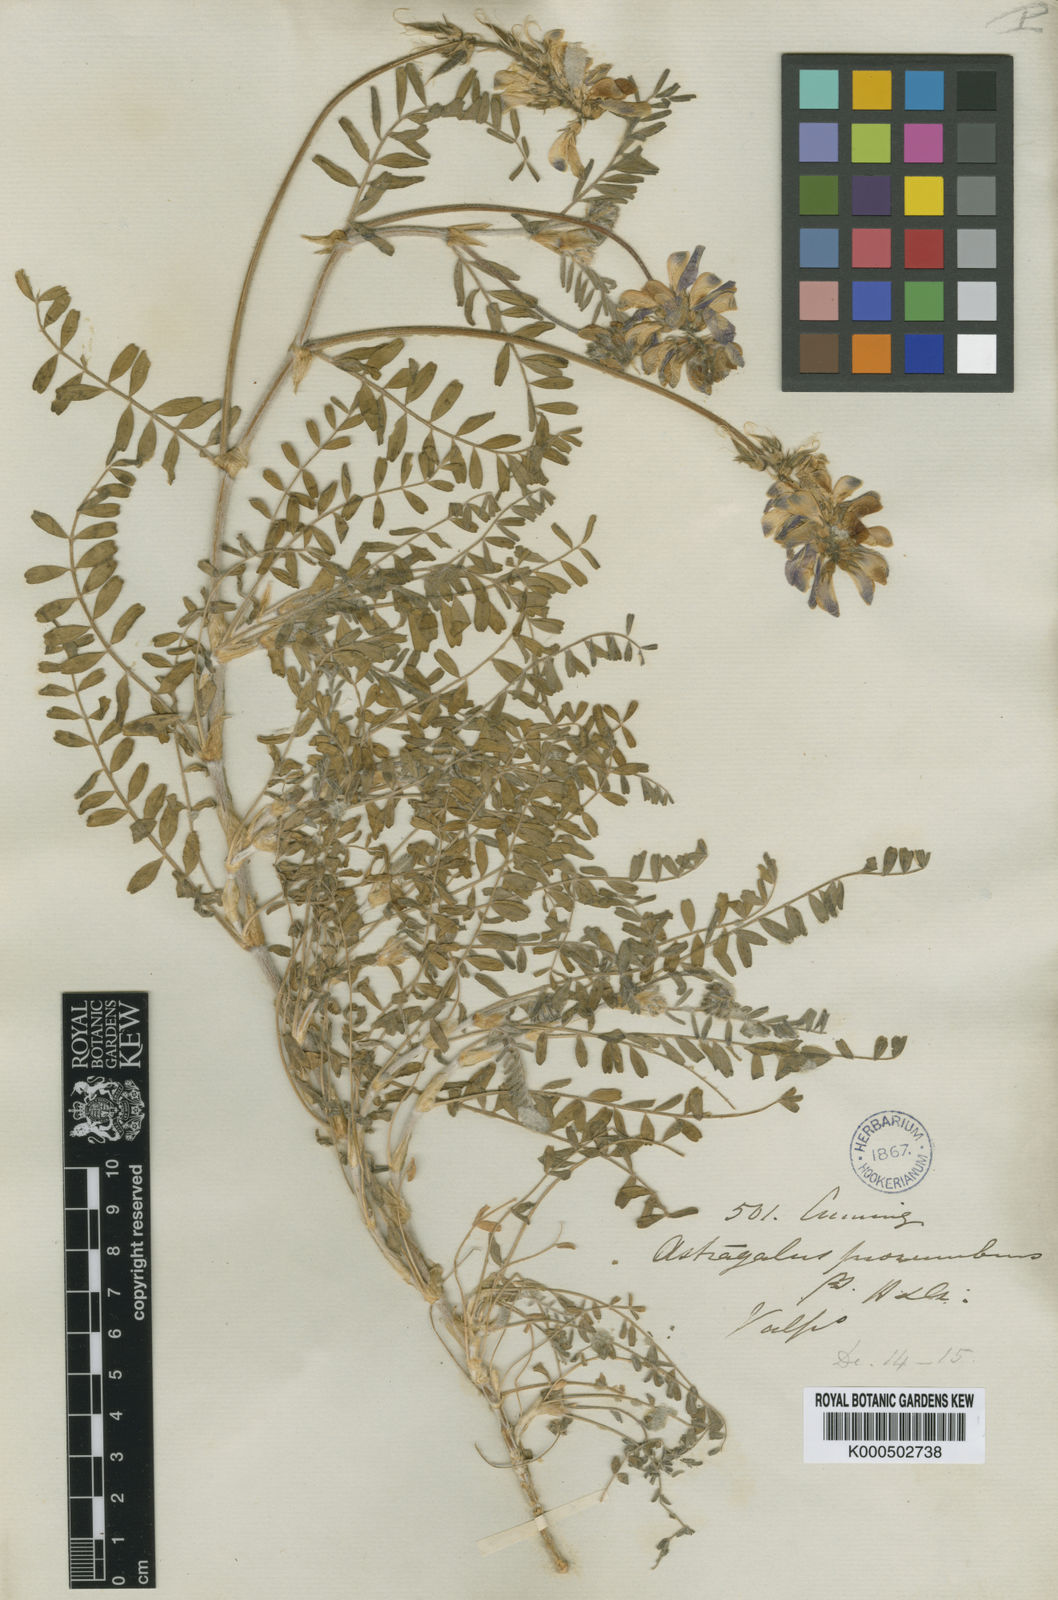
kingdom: Plantae
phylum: Tracheophyta
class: Magnoliopsida
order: Fabales
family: Fabaceae
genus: Astragalus
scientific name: Astragalus amatus
